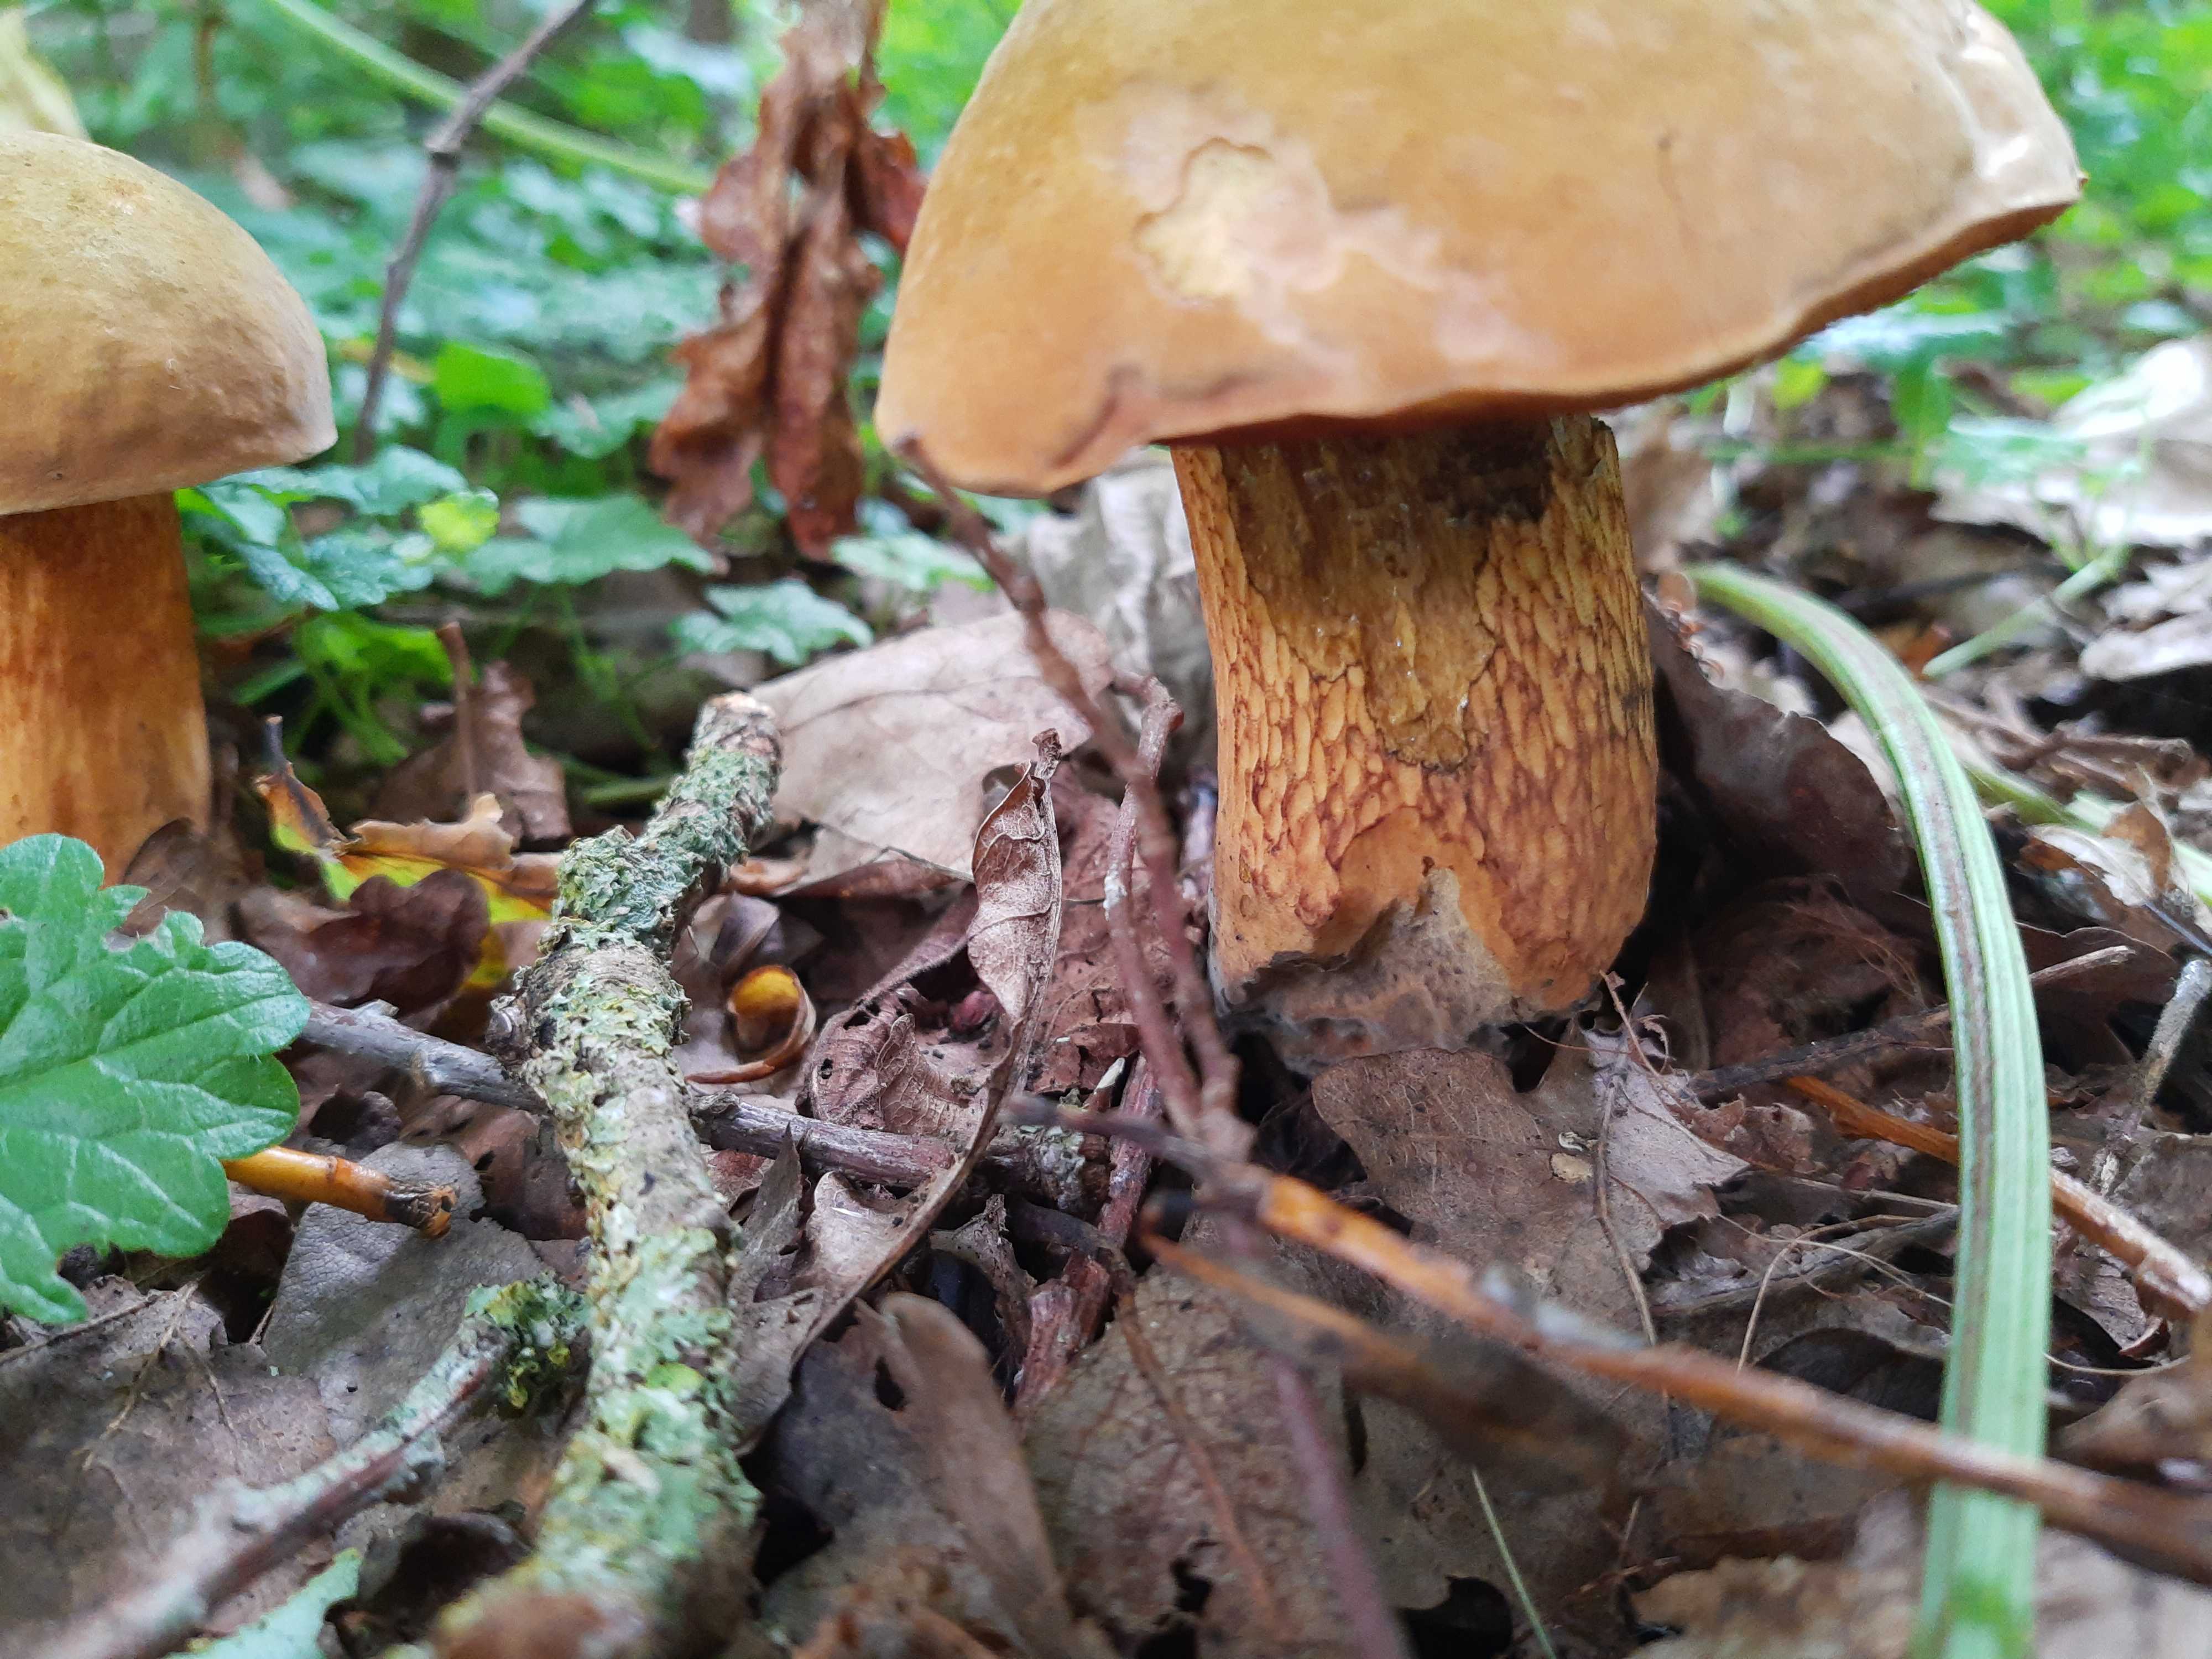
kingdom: Fungi
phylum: Basidiomycota
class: Agaricomycetes
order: Boletales
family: Boletaceae
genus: Suillellus
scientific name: Suillellus luridus
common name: netstokket indigorørhat
